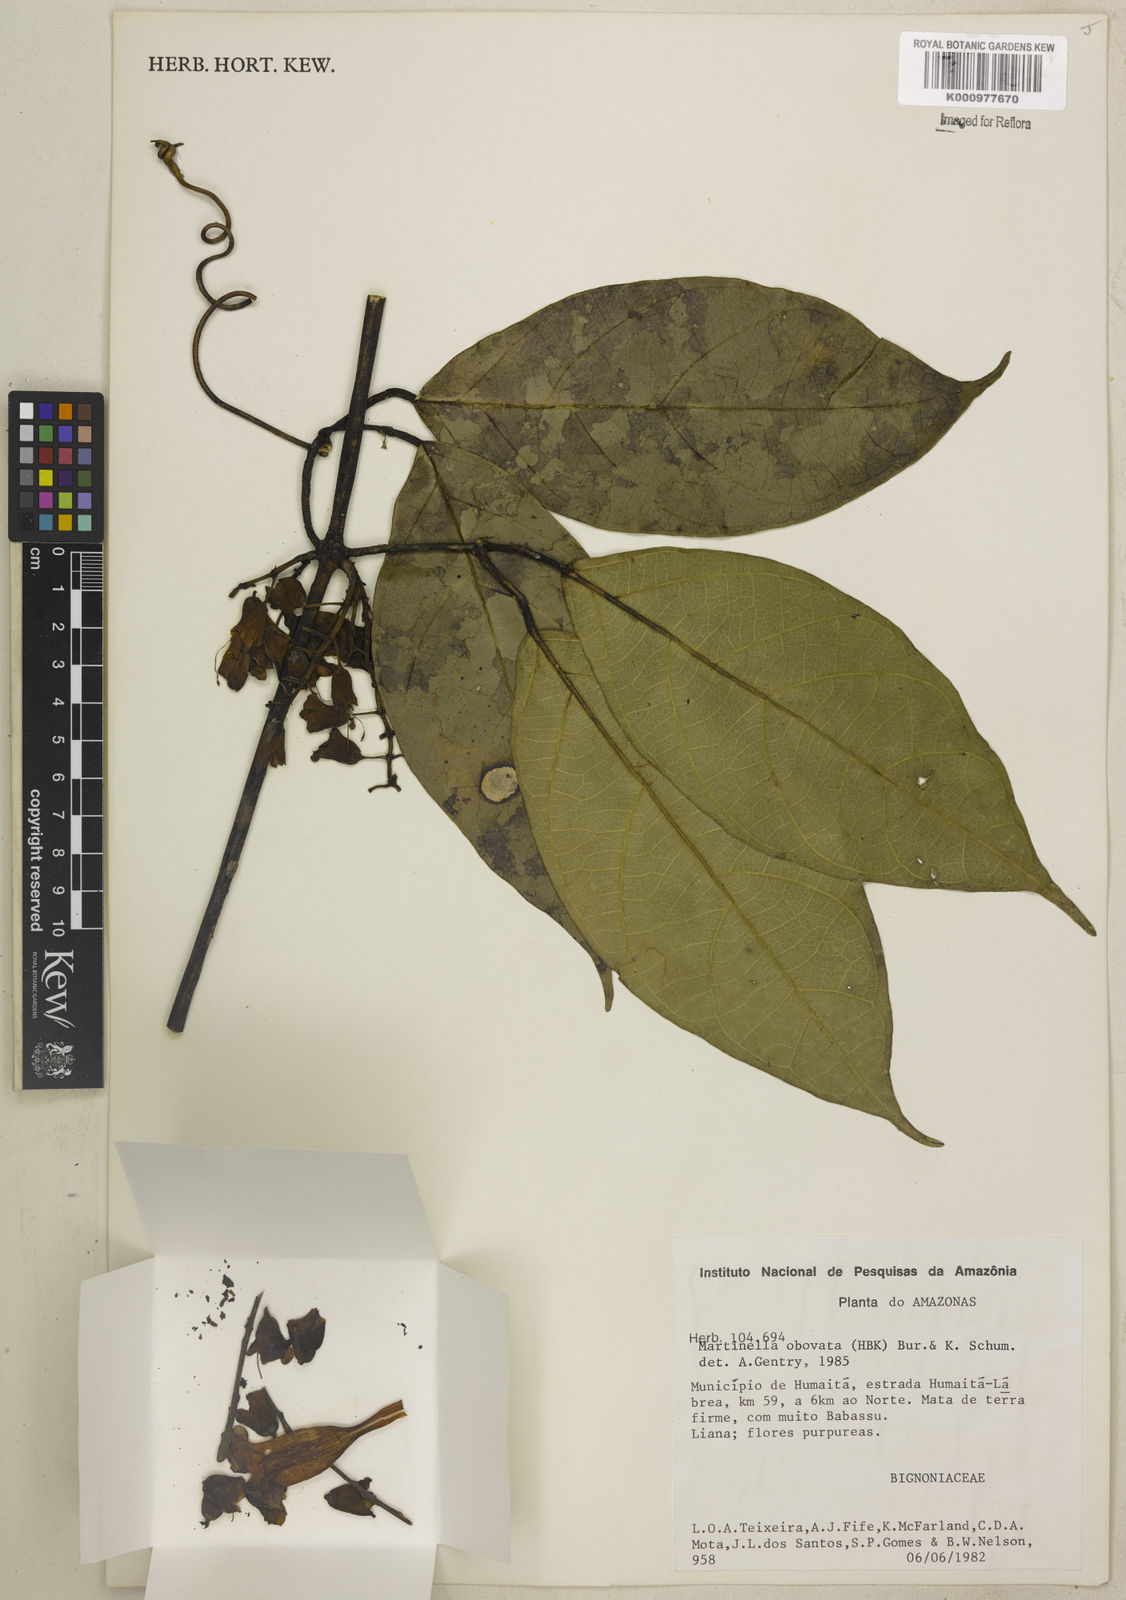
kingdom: Animalia
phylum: Arthropoda
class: Insecta
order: Coleoptera
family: Chrysomelidae
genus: Martinella
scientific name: Martinella obovata
